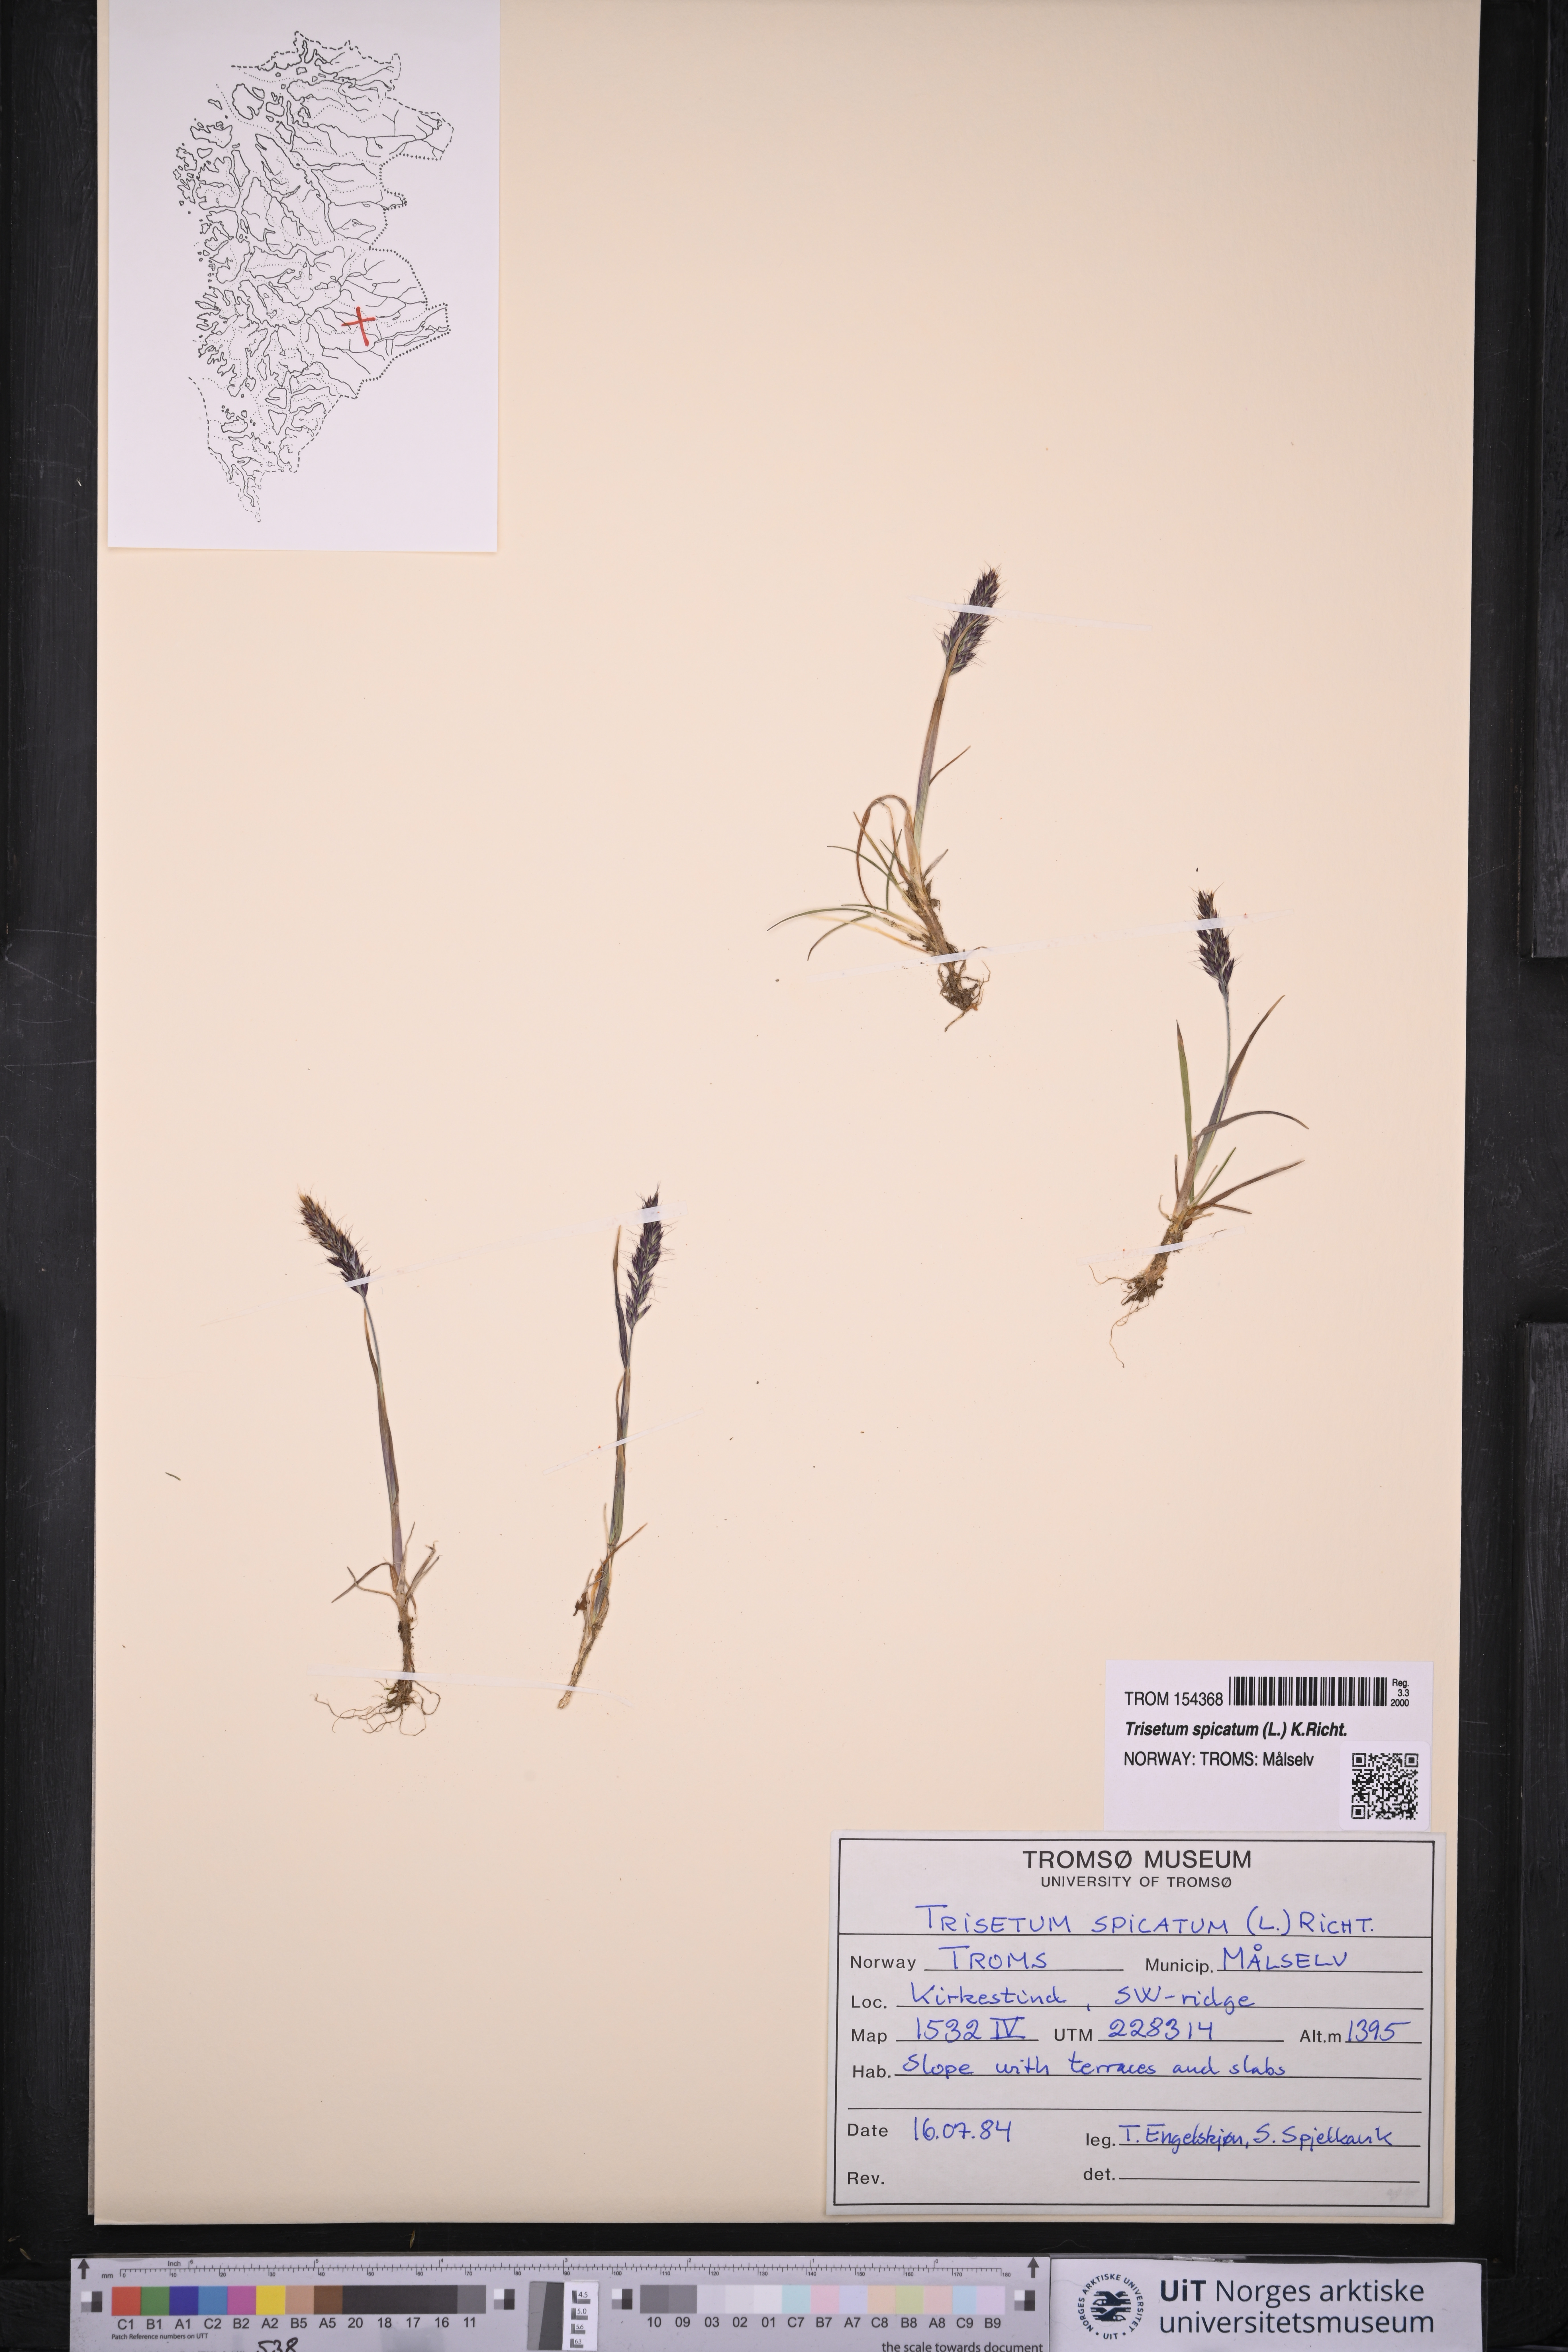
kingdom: Plantae
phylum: Tracheophyta
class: Liliopsida
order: Poales
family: Poaceae
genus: Koeleria
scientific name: Koeleria spicata
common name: Mountain trisetum
